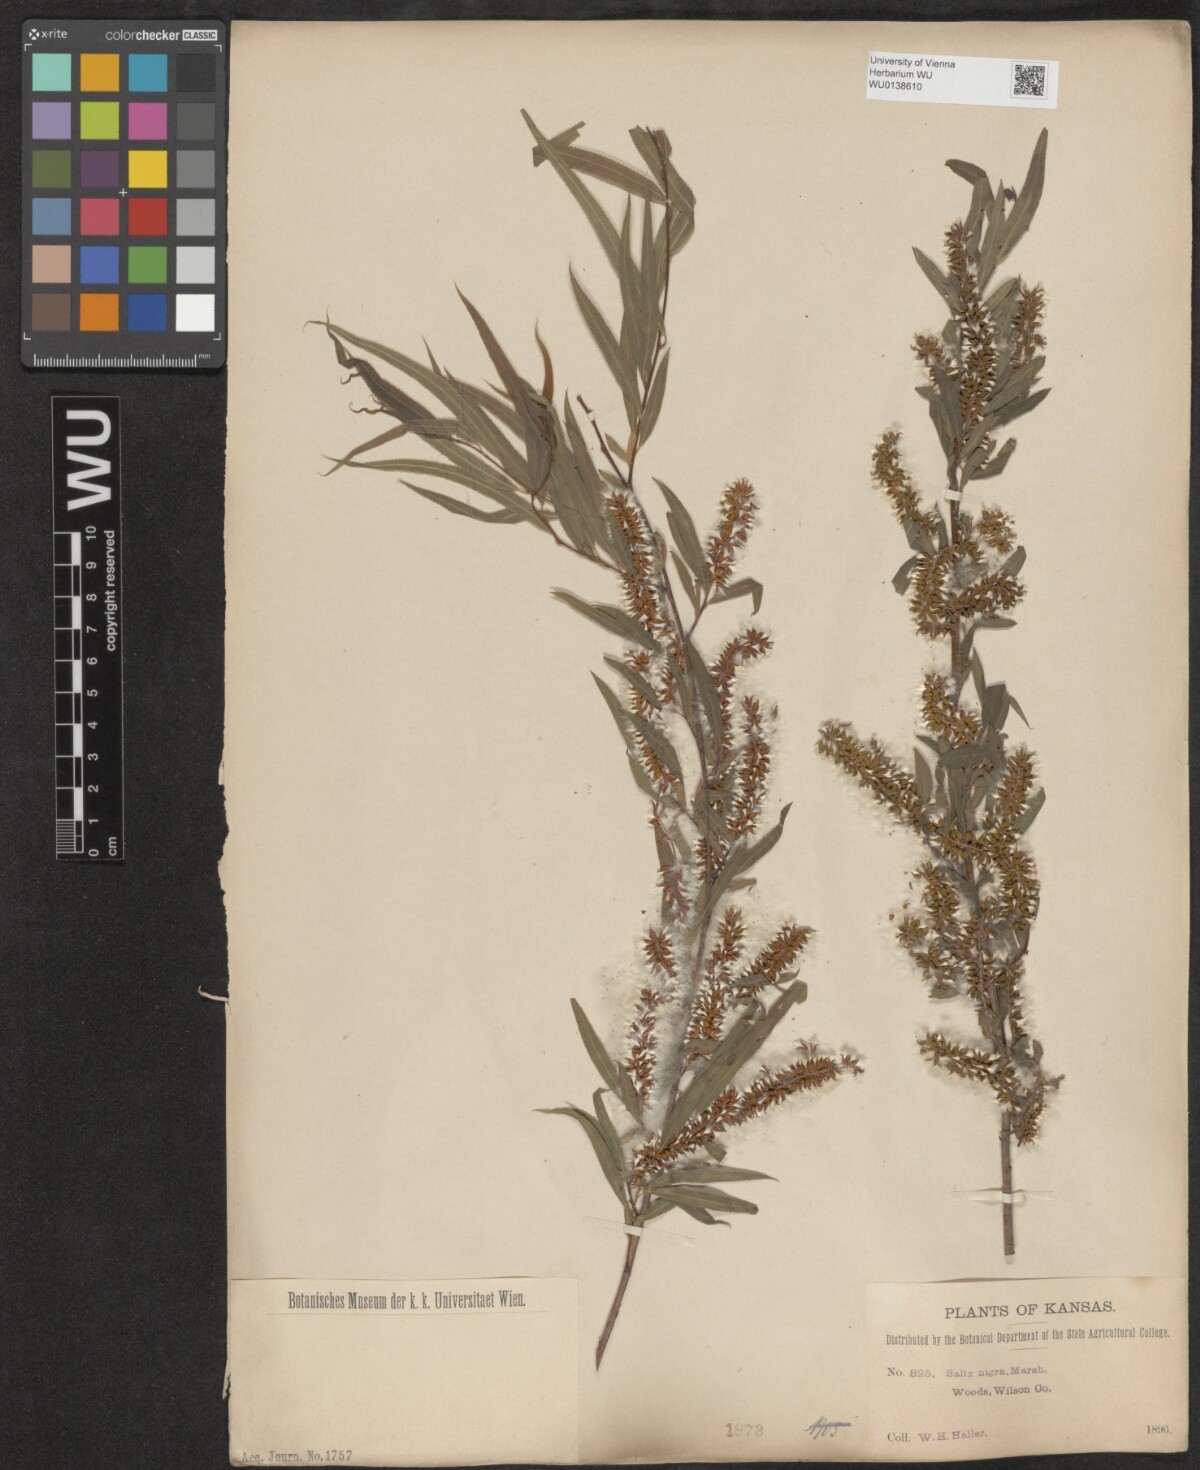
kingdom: Plantae
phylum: Tracheophyta
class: Magnoliopsida
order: Malpighiales
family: Salicaceae
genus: Salix
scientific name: Salix nigra
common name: Black willow
